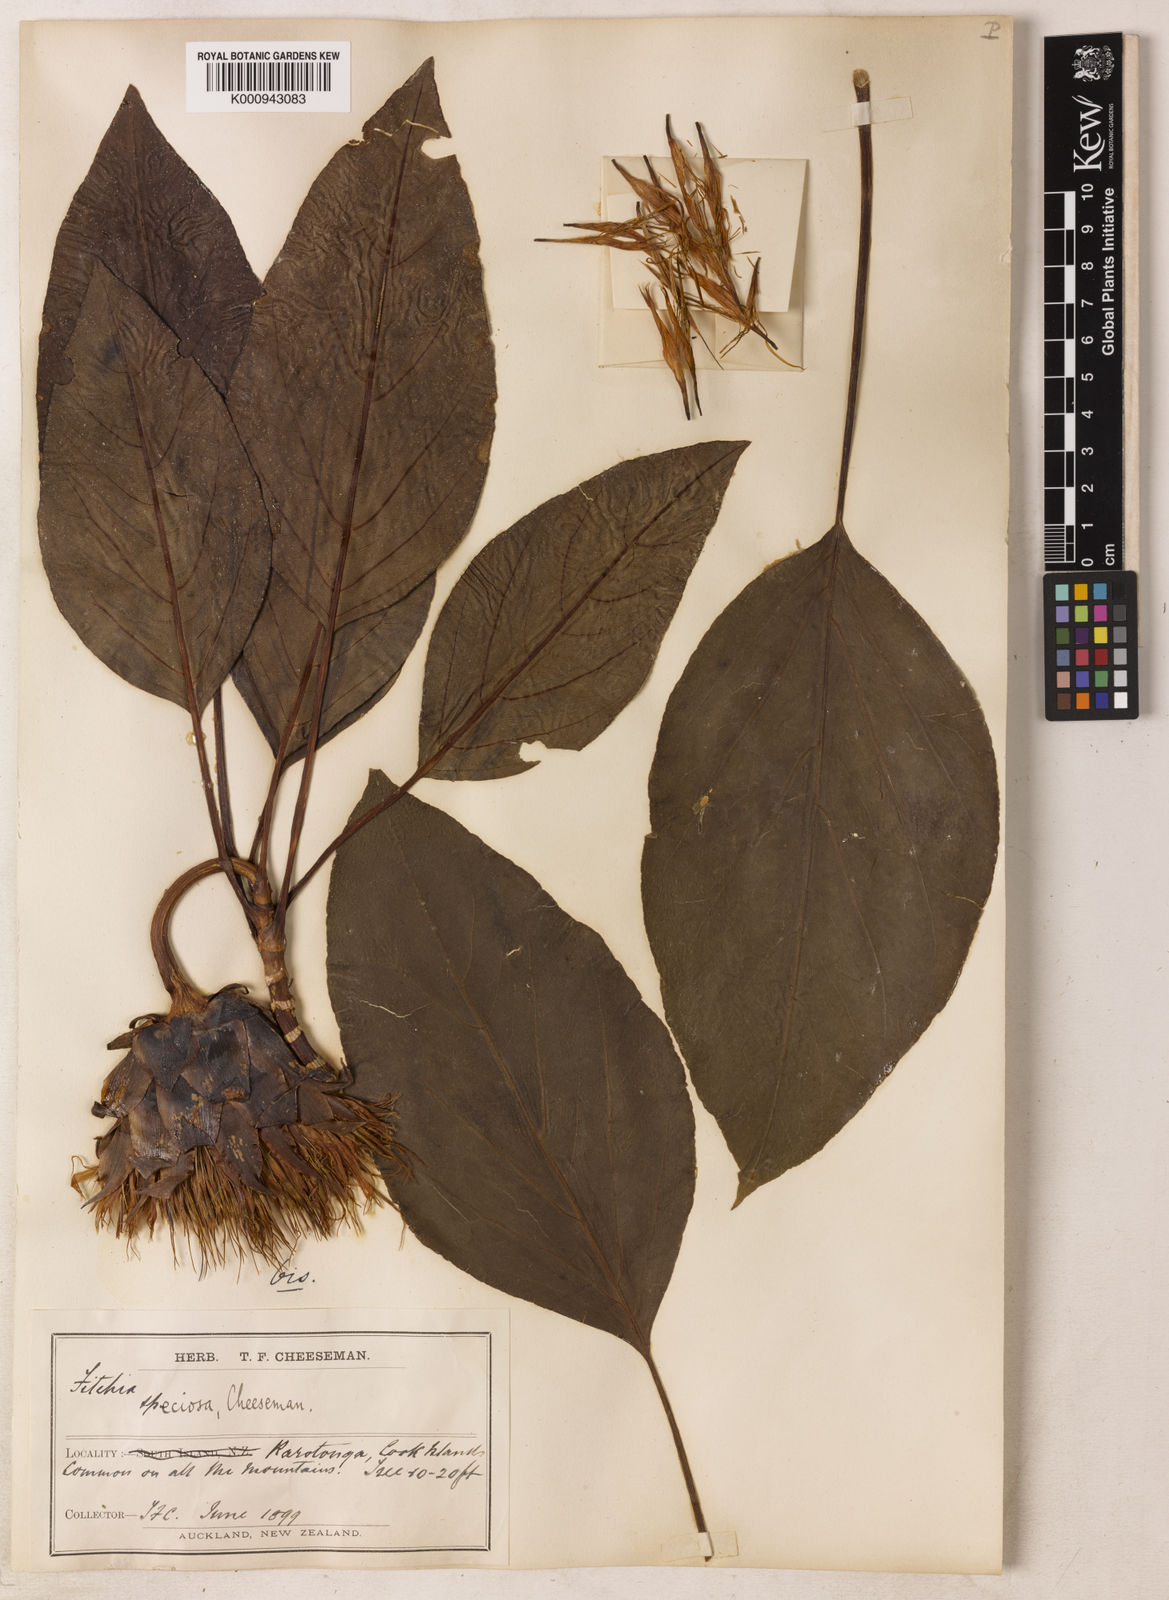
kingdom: Plantae
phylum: Tracheophyta
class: Magnoliopsida
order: Asterales
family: Asteraceae
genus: Fitchia
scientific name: Fitchia speciosa
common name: Burr daisytree
